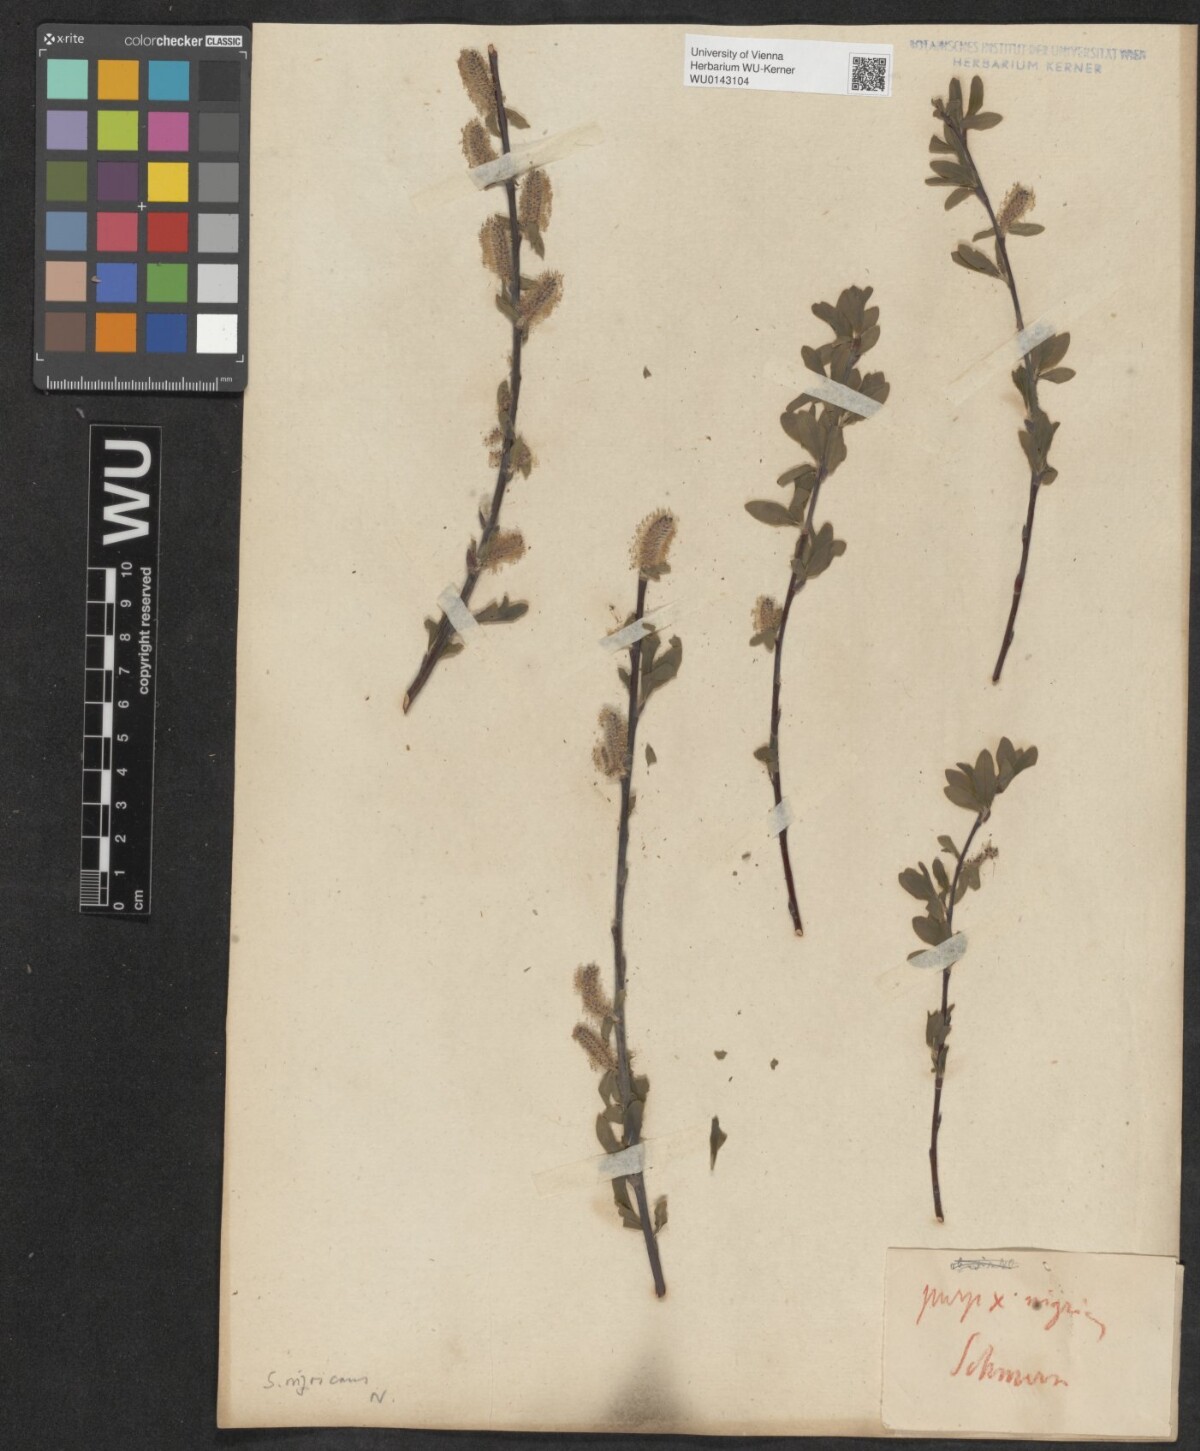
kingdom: Plantae
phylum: Tracheophyta
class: Magnoliopsida
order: Malpighiales
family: Salicaceae
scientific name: Salicaceae
